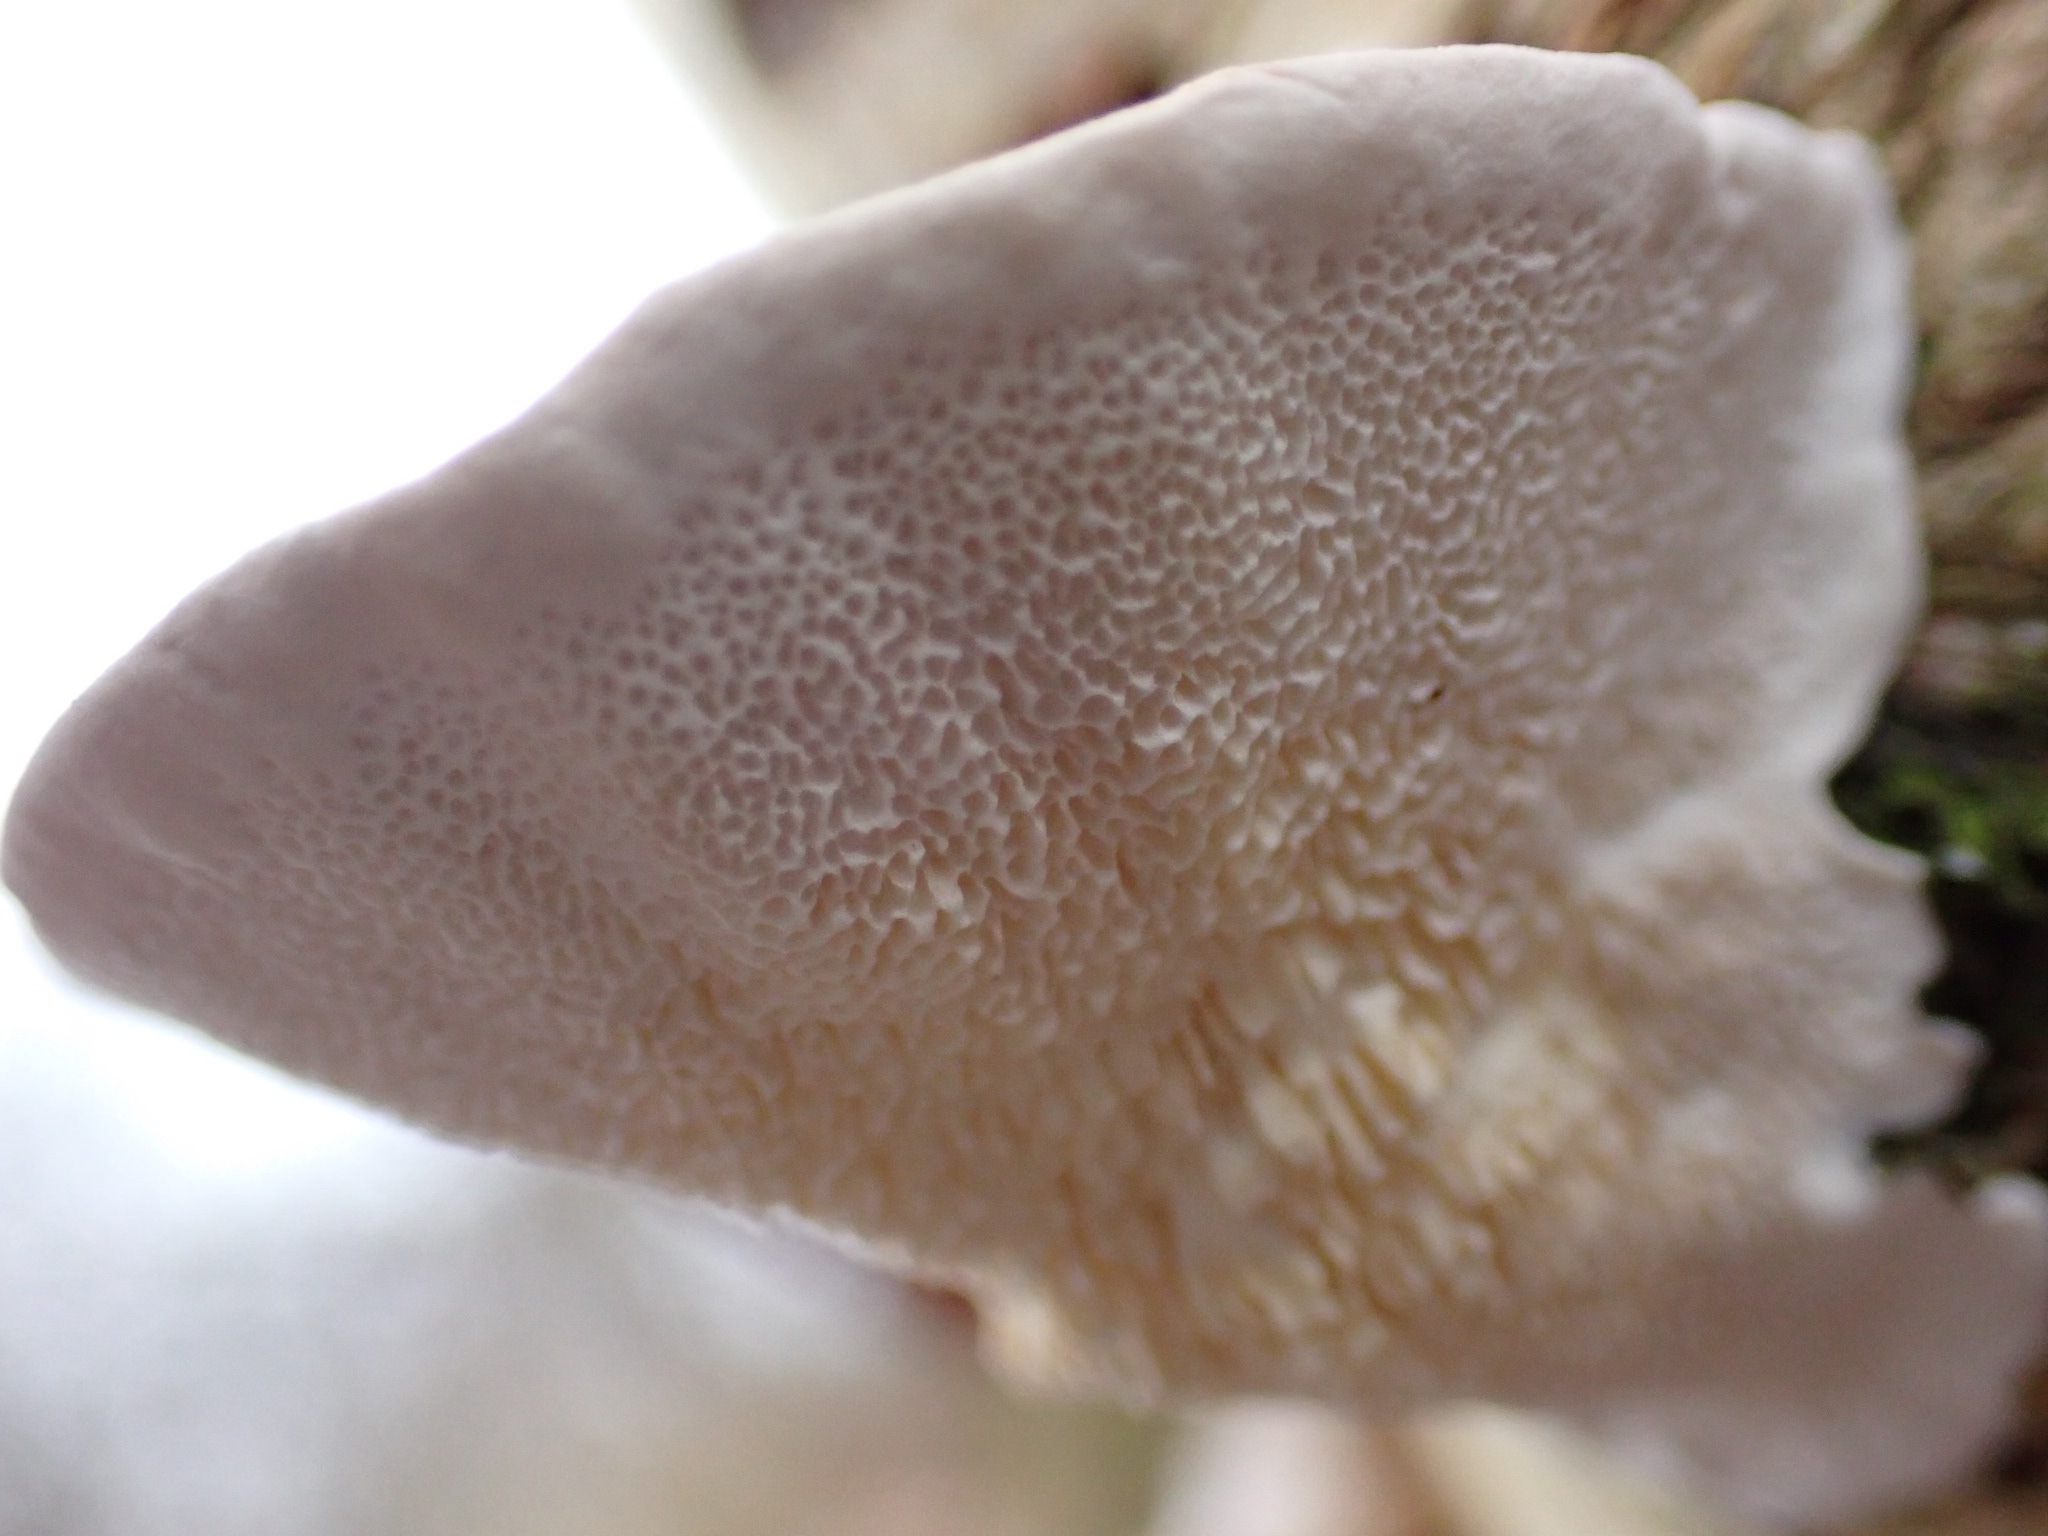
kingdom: Fungi
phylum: Basidiomycota
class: Agaricomycetes
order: Polyporales
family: Polyporaceae
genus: Trametes
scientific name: Trametes versicolor
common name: broget læderporesvamp
